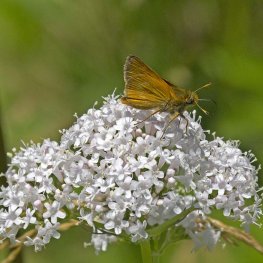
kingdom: Animalia
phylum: Arthropoda
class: Insecta
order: Lepidoptera
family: Hesperiidae
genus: Polites
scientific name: Polites
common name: Long Dash Skipper
